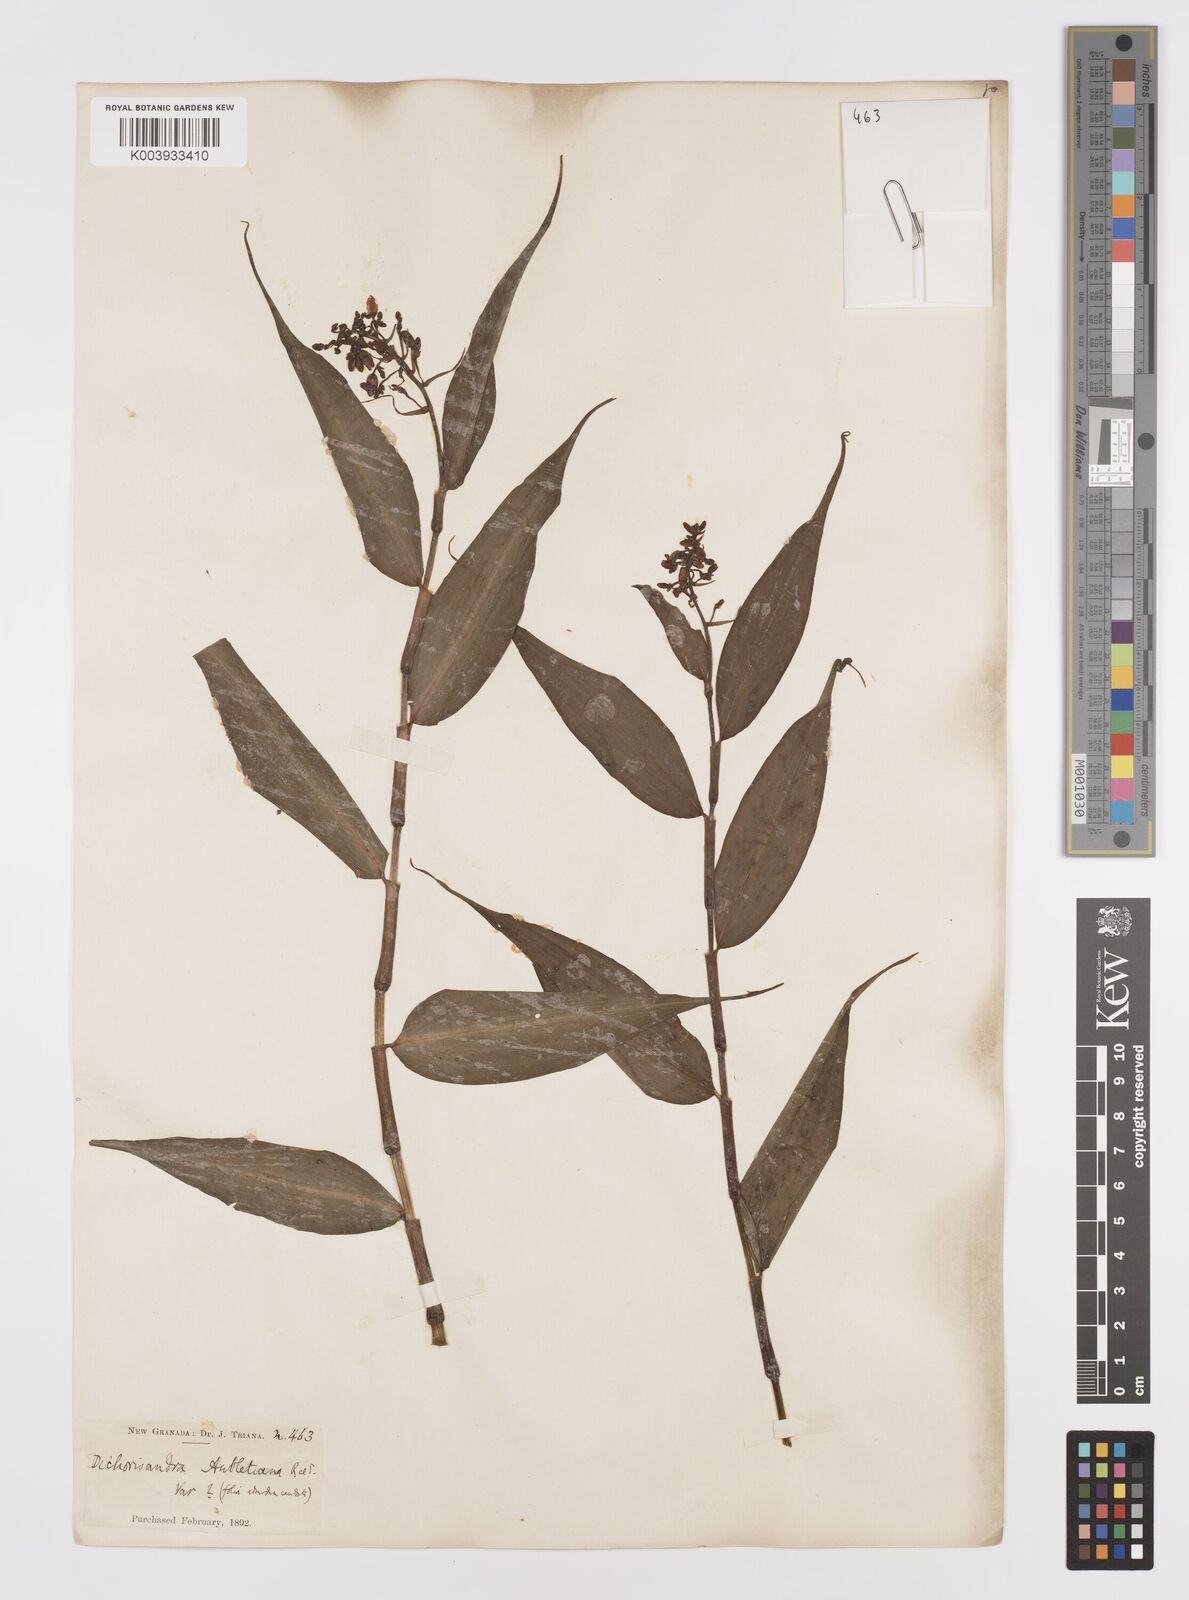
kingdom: Plantae
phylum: Tracheophyta
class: Liliopsida
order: Commelinales
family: Commelinaceae
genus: Dichorisandra
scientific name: Dichorisandra hexandra
